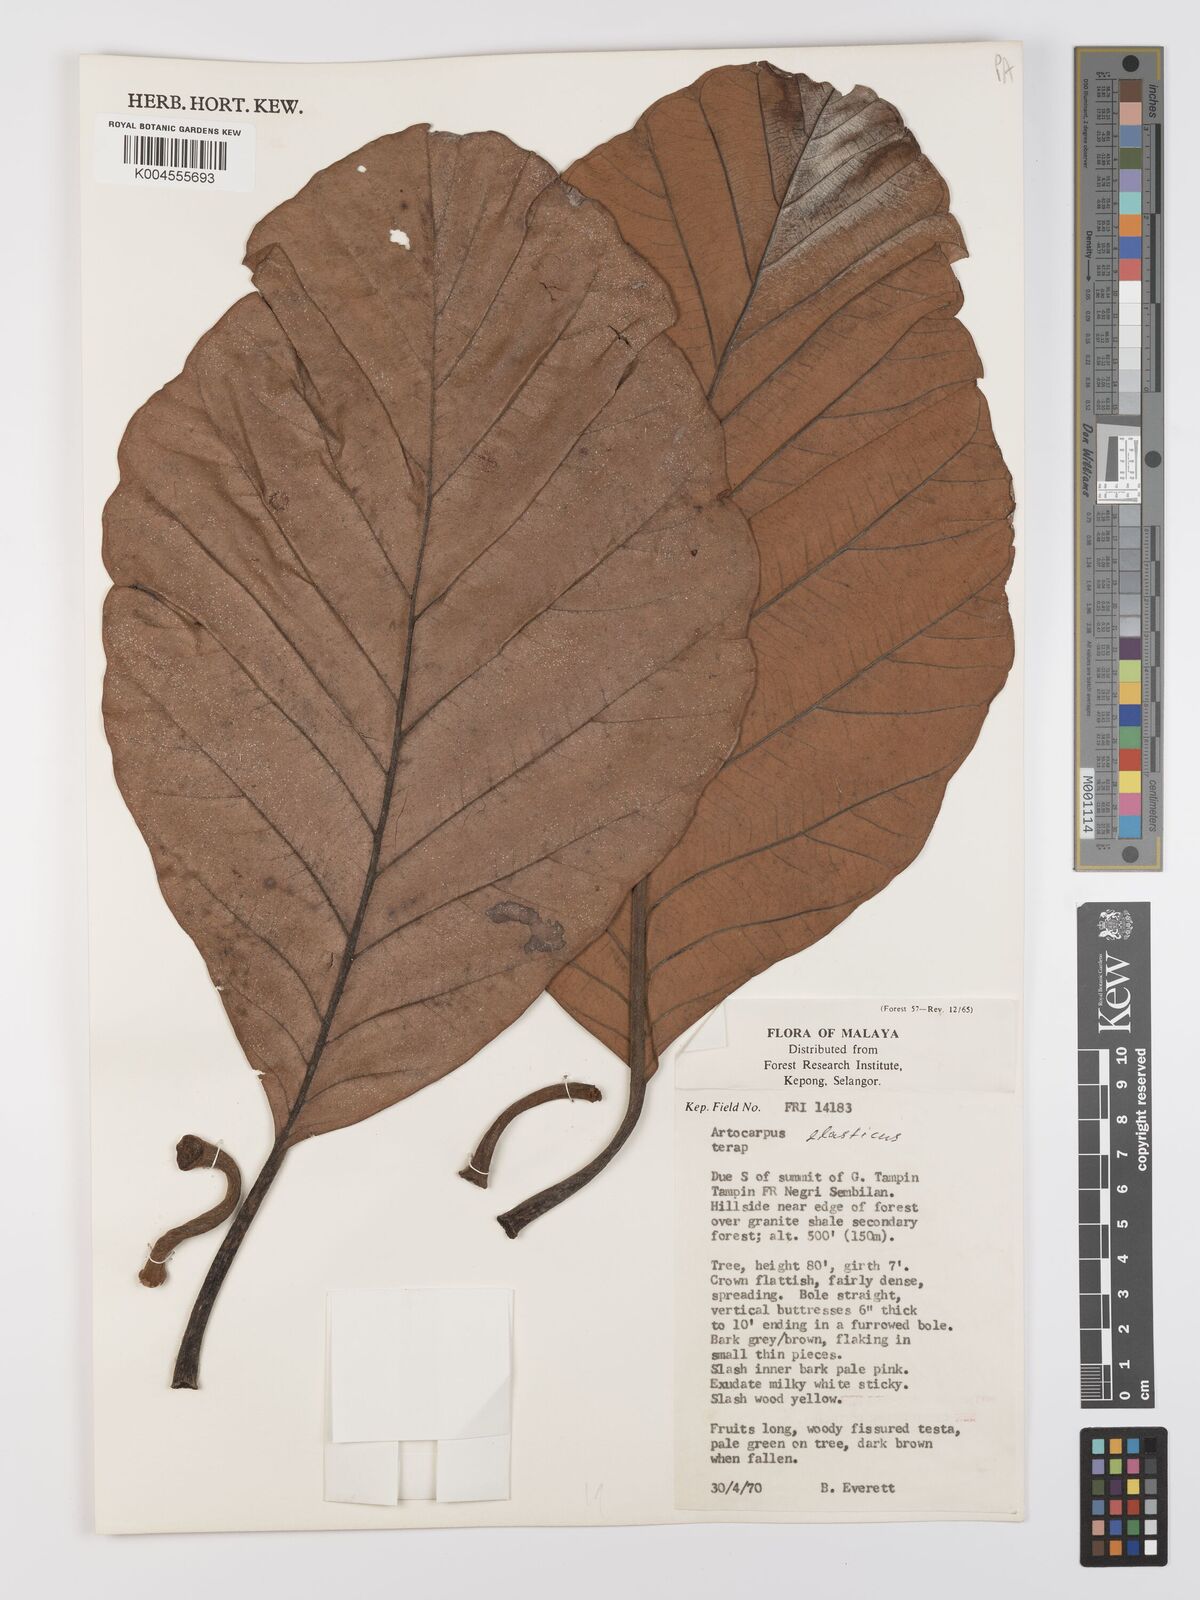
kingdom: Plantae
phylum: Tracheophyta
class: Magnoliopsida
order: Rosales
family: Moraceae
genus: Artocarpus
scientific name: Artocarpus elasticus
